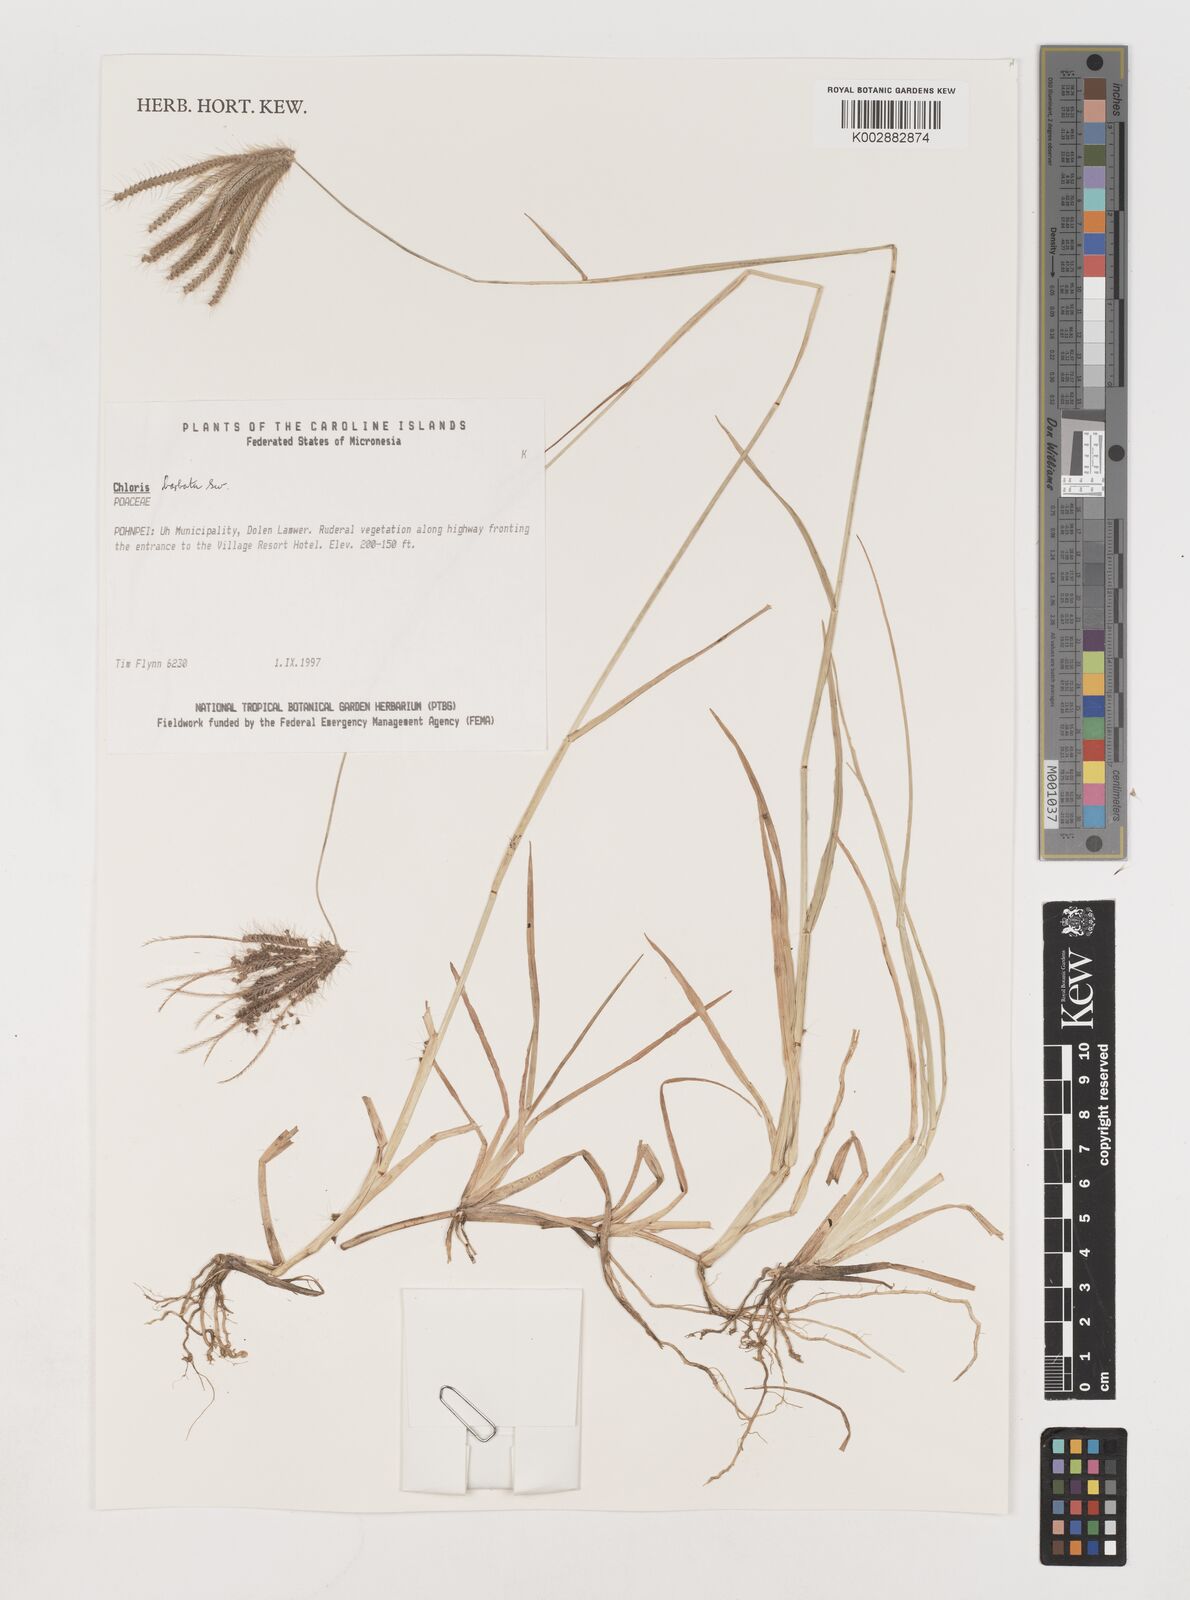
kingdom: Plantae
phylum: Tracheophyta
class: Liliopsida
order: Poales
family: Poaceae
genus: Chloris
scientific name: Chloris barbata
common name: Swollen fingergrass
